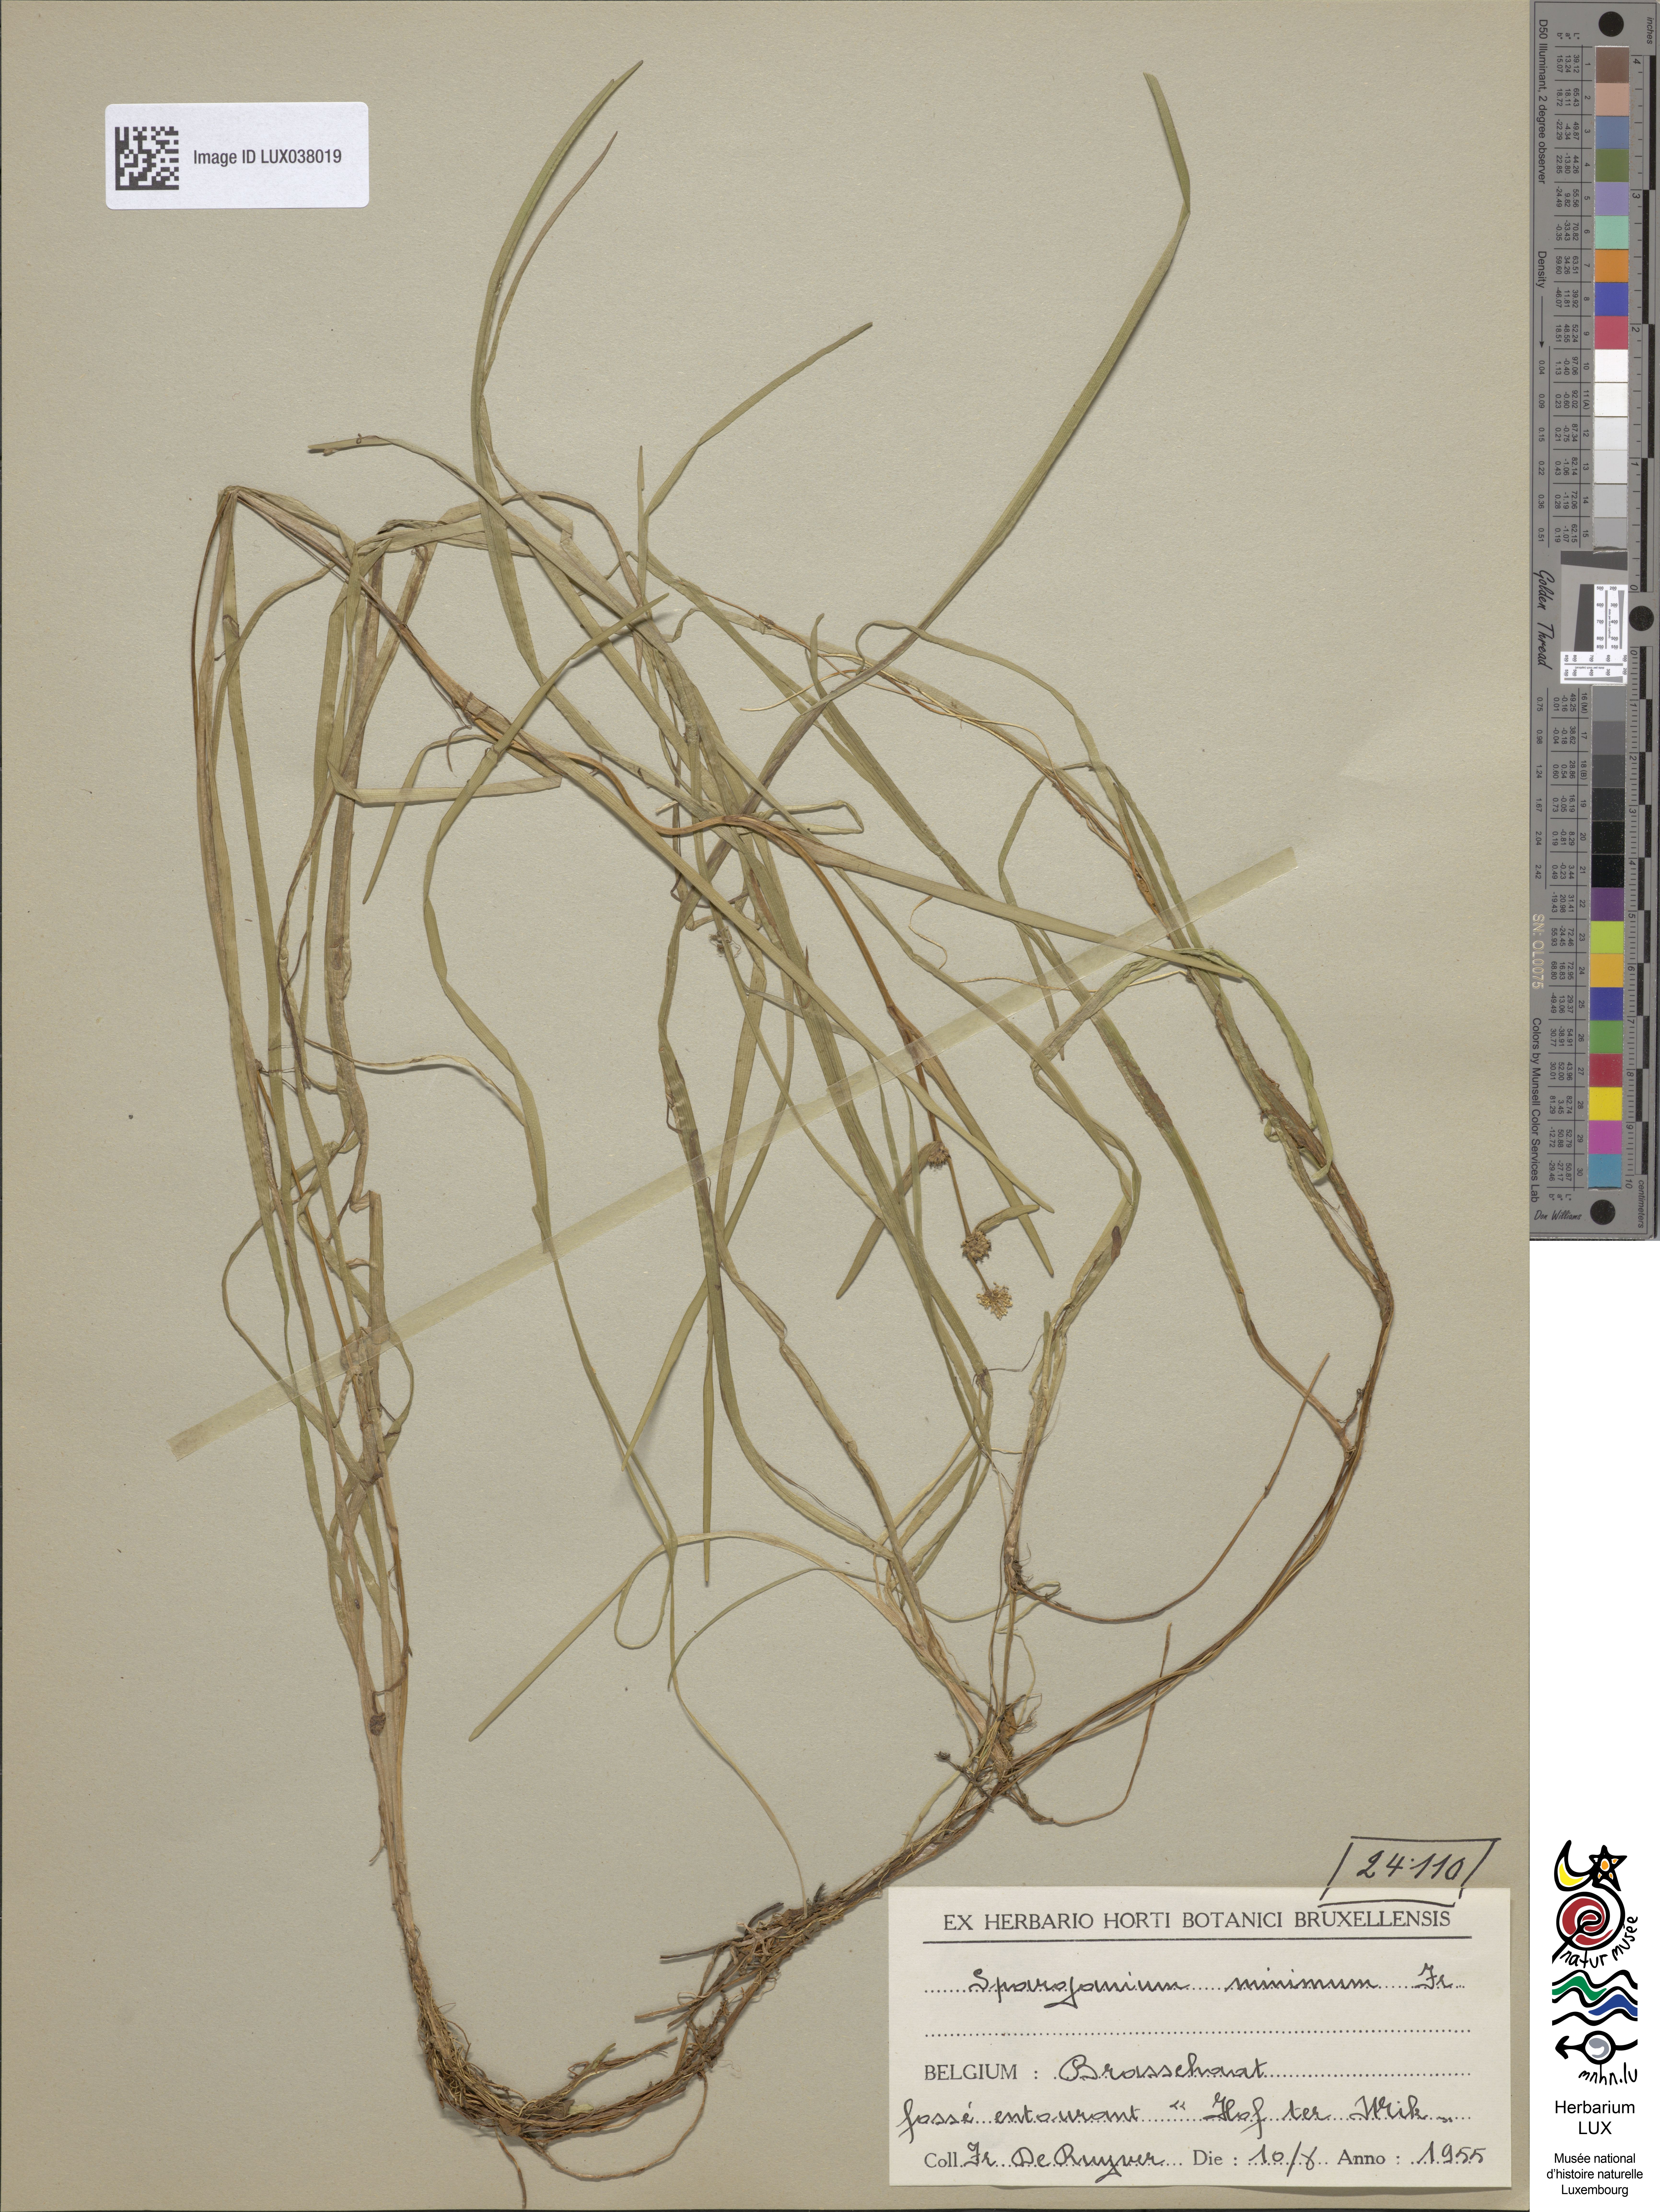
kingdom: Plantae
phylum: Tracheophyta
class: Liliopsida
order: Poales
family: Typhaceae
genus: Sparganium
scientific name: Sparganium natans
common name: Least bur-reed
